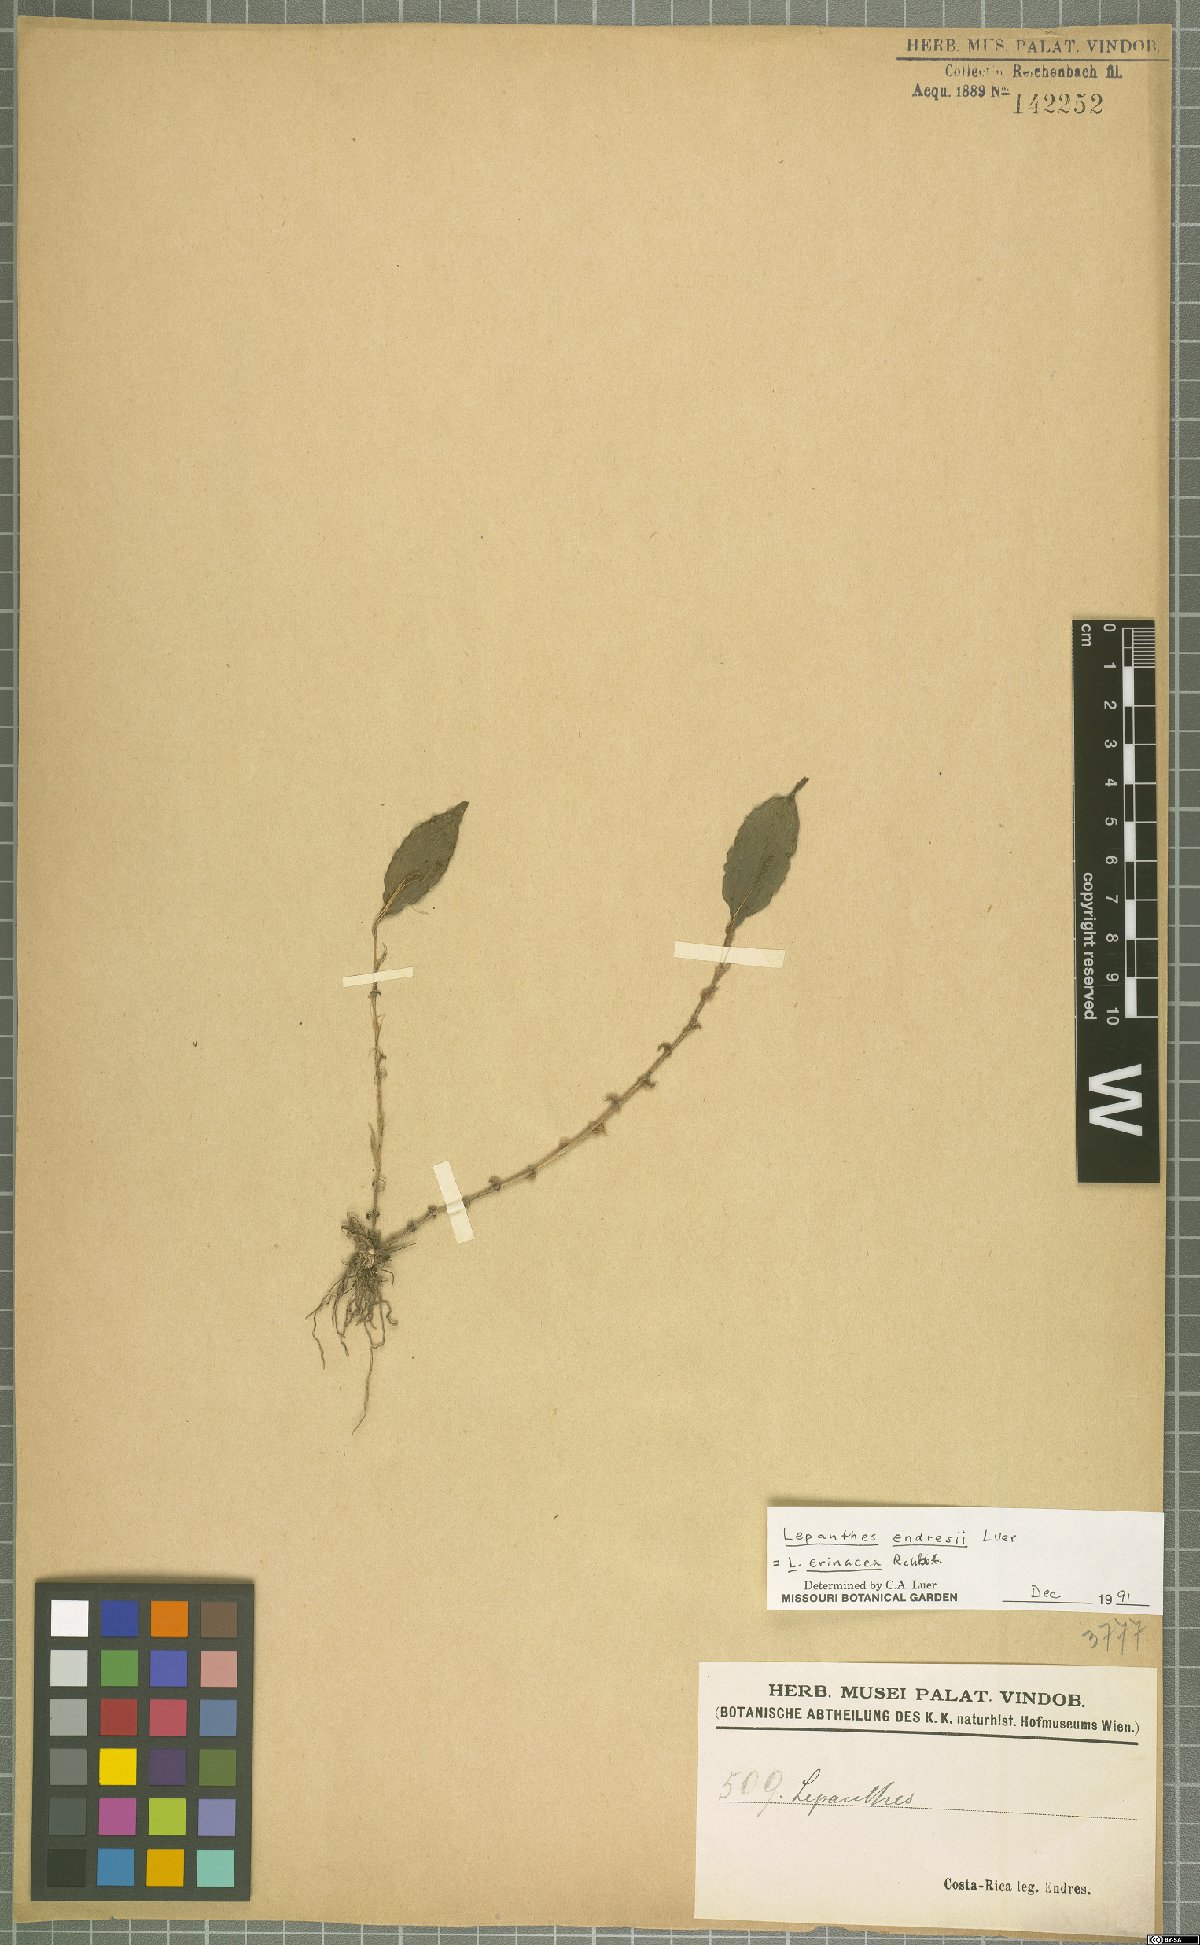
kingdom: Plantae
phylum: Tracheophyta
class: Liliopsida
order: Asparagales
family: Orchidaceae
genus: Lepanthes
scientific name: Lepanthes erinacea
